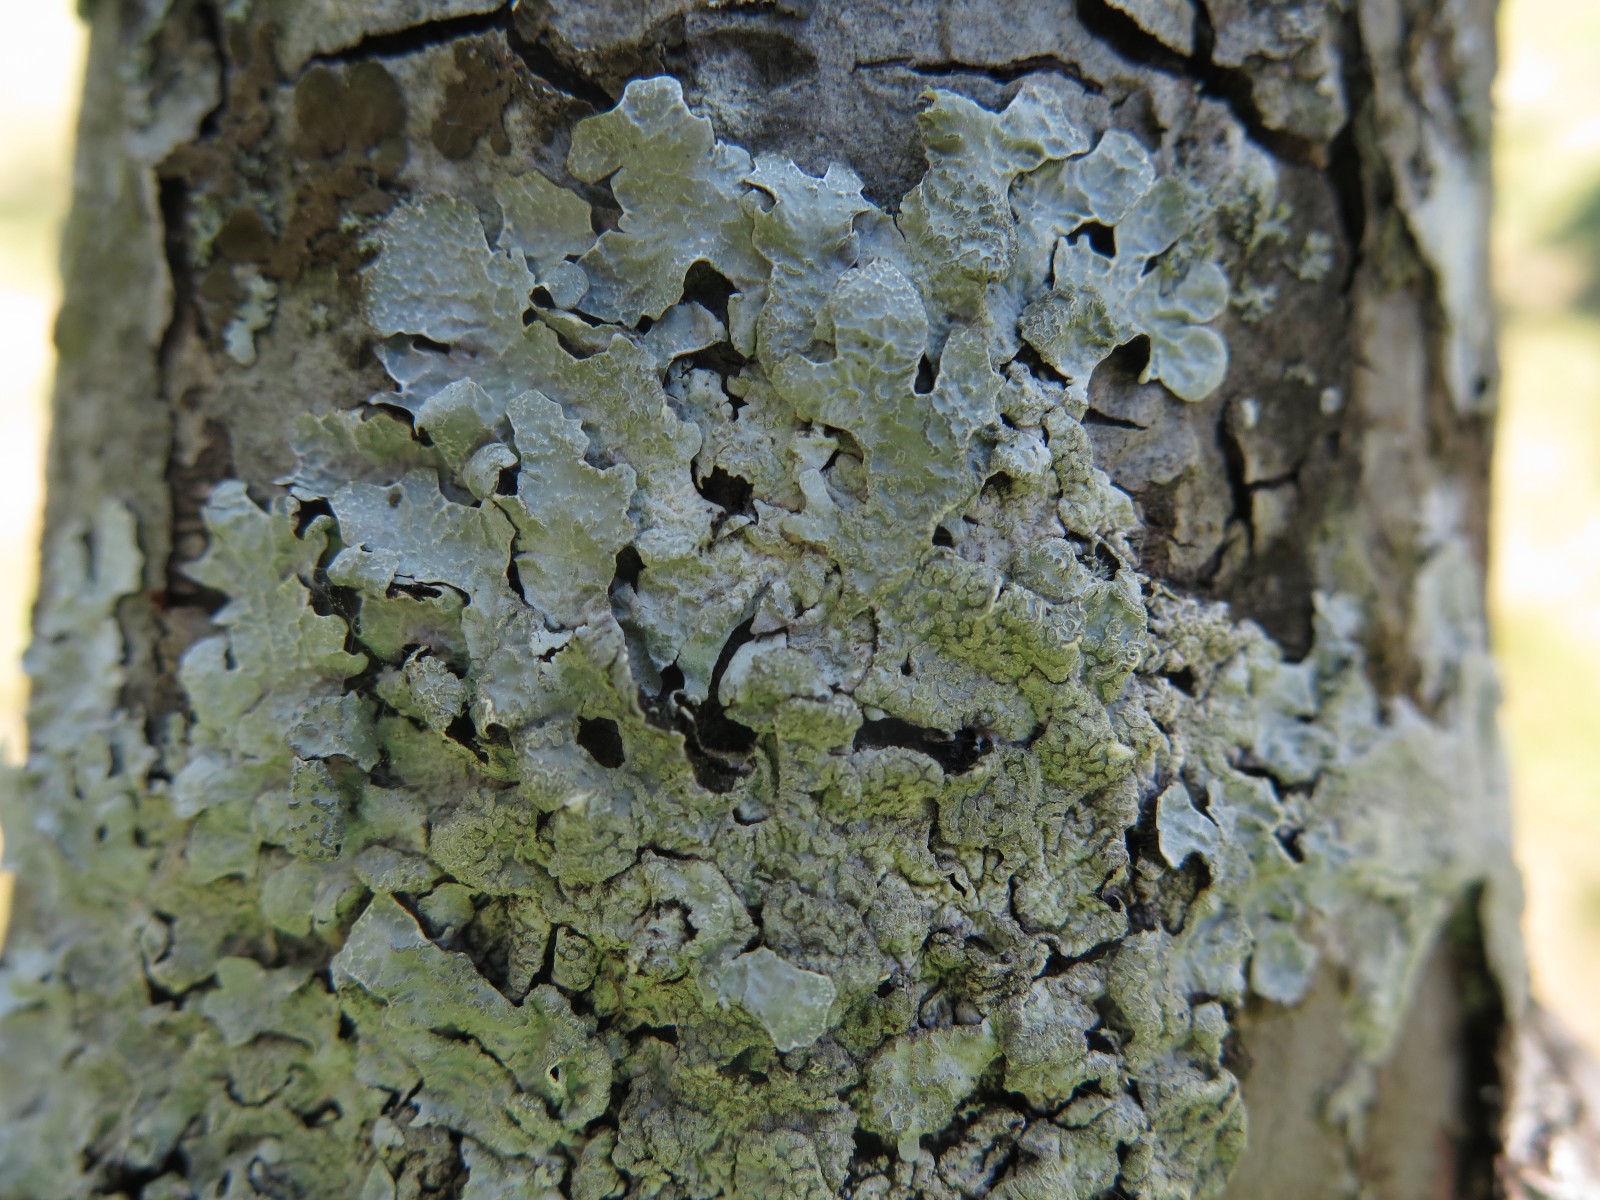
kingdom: Fungi
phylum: Ascomycota
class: Lecanoromycetes
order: Lecanorales
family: Parmeliaceae
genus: Parmelia
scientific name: Parmelia sulcata
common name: rynket skållav
